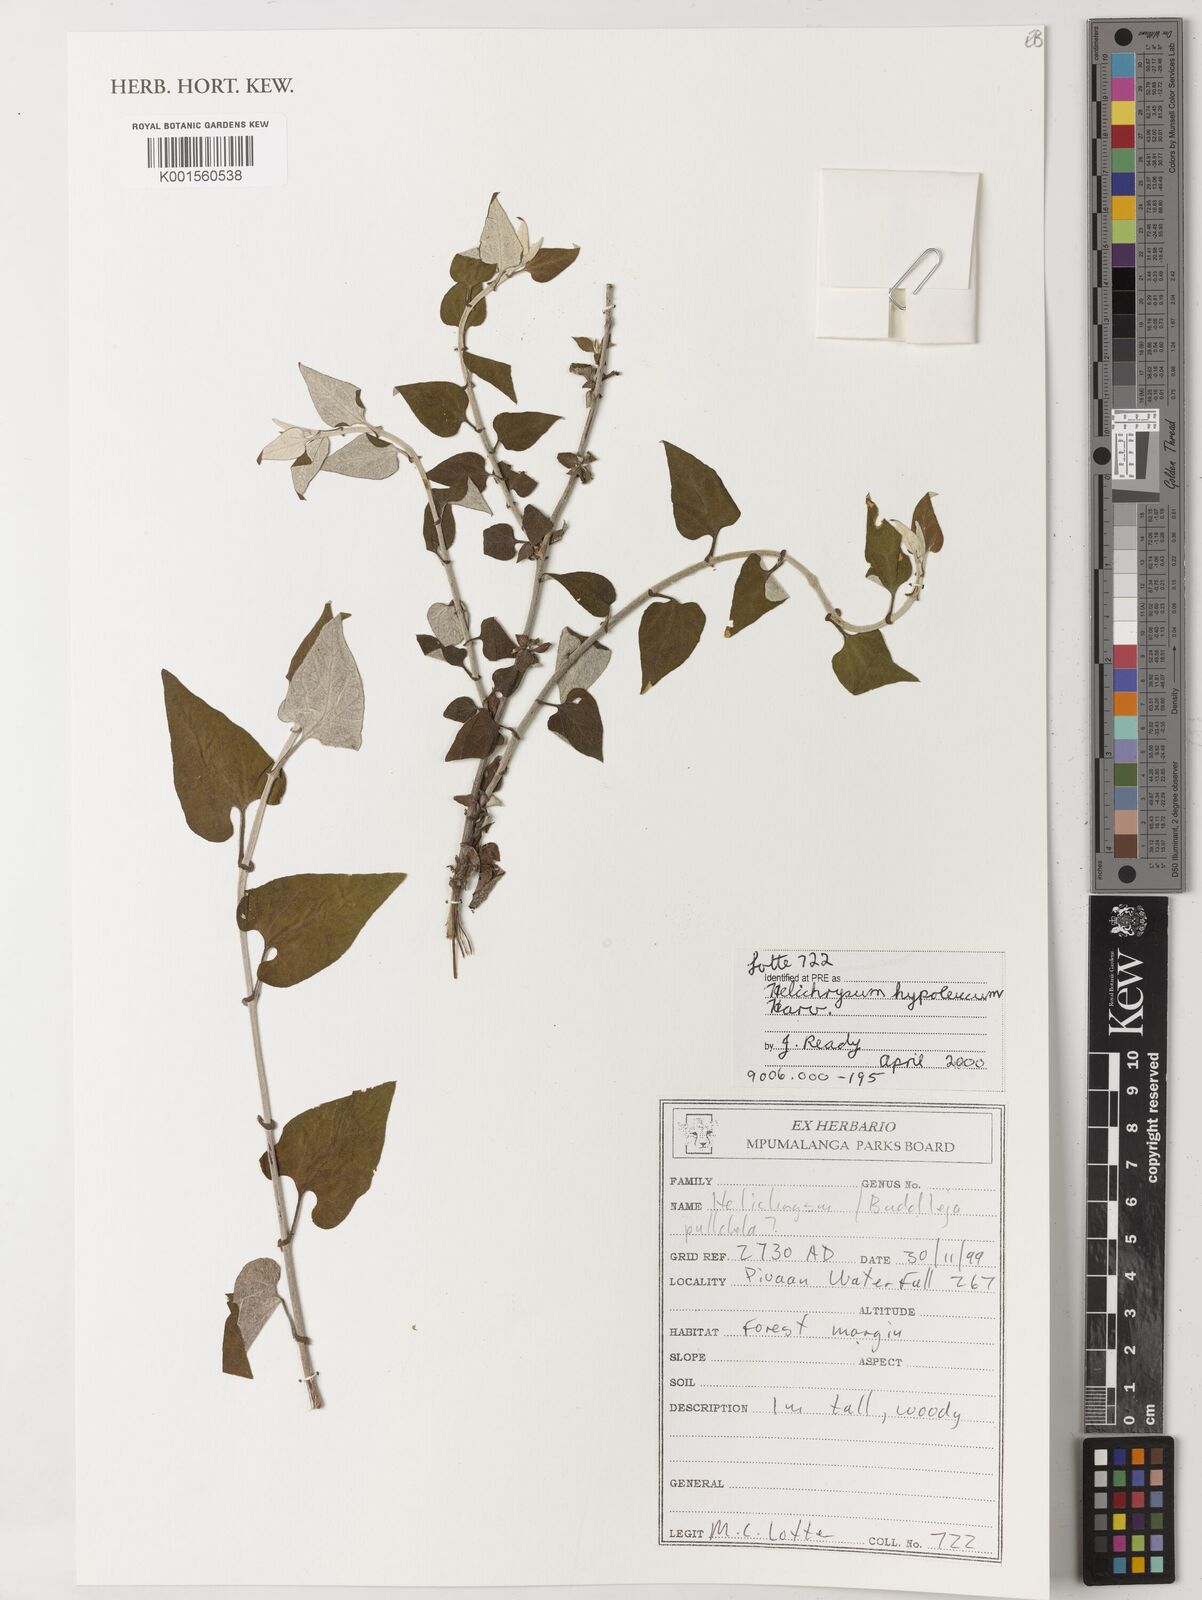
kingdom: Plantae
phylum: Tracheophyta
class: Magnoliopsida
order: Asterales
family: Asteraceae
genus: Helichrysum
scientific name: Helichrysum hypoleucum
